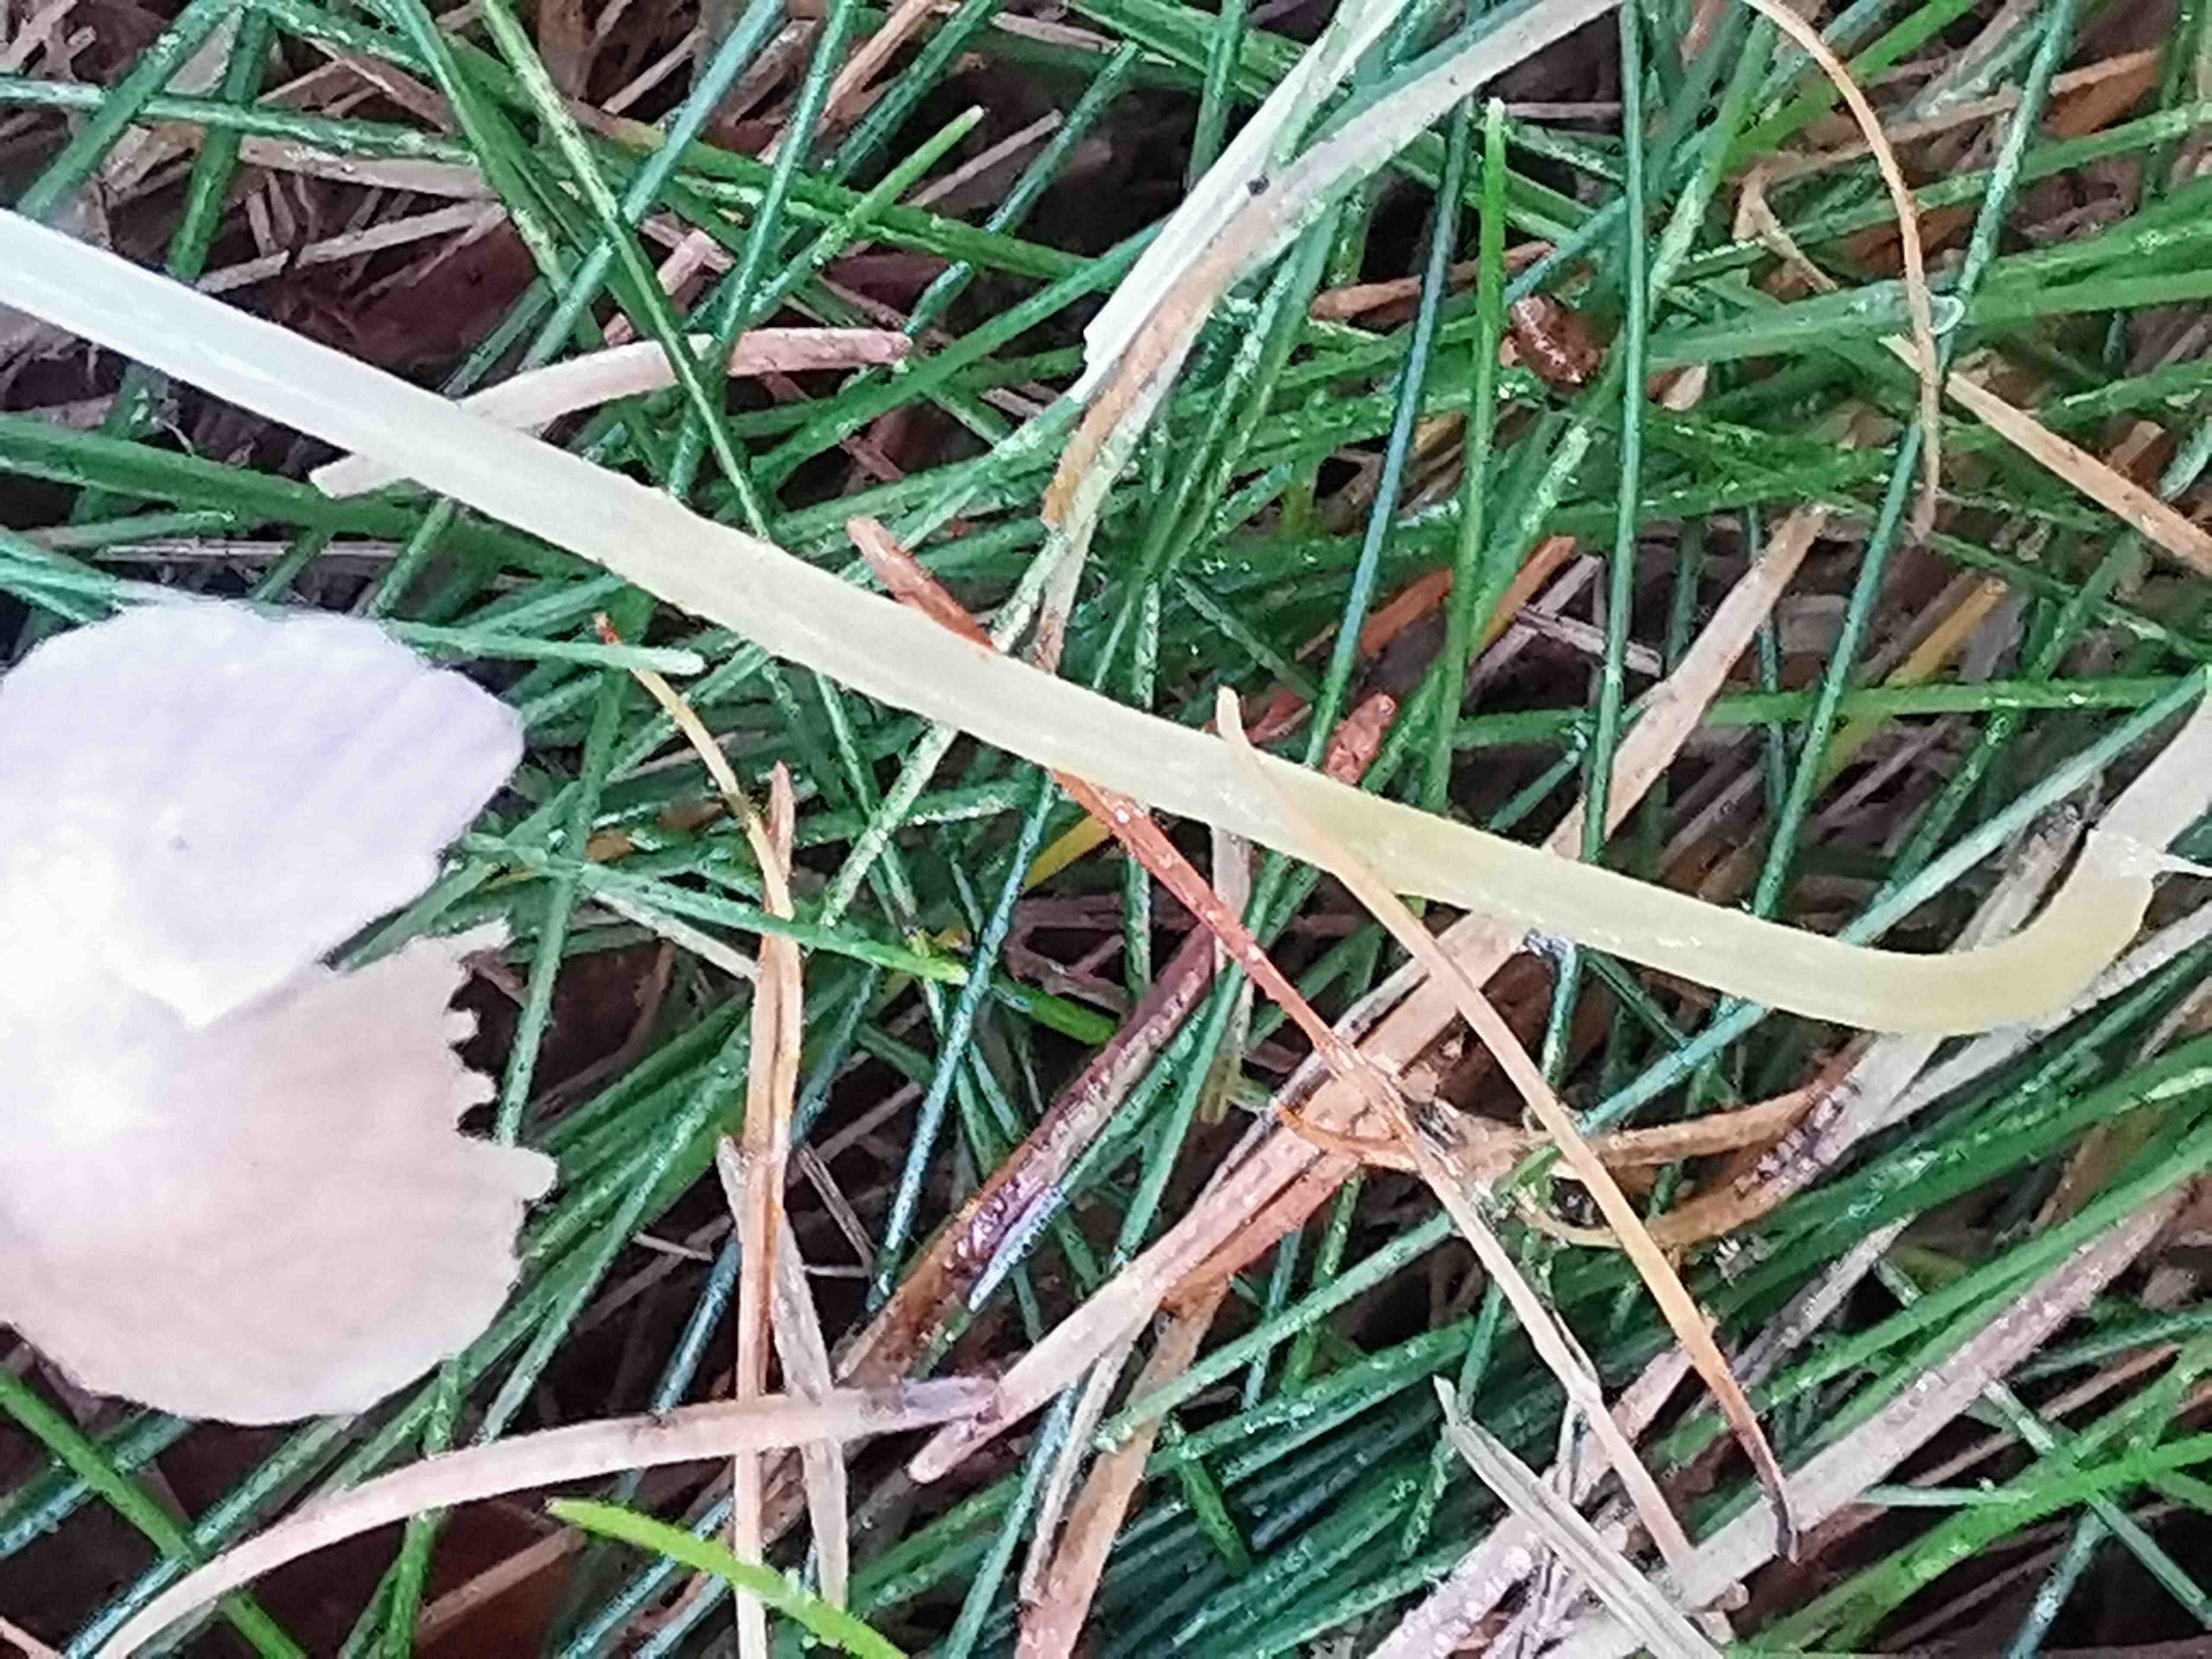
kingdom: Fungi
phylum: Basidiomycota
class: Agaricomycetes
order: Agaricales
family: Mycenaceae
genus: Mycena
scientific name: Mycena epipterygia
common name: gulstokket huesvamp
